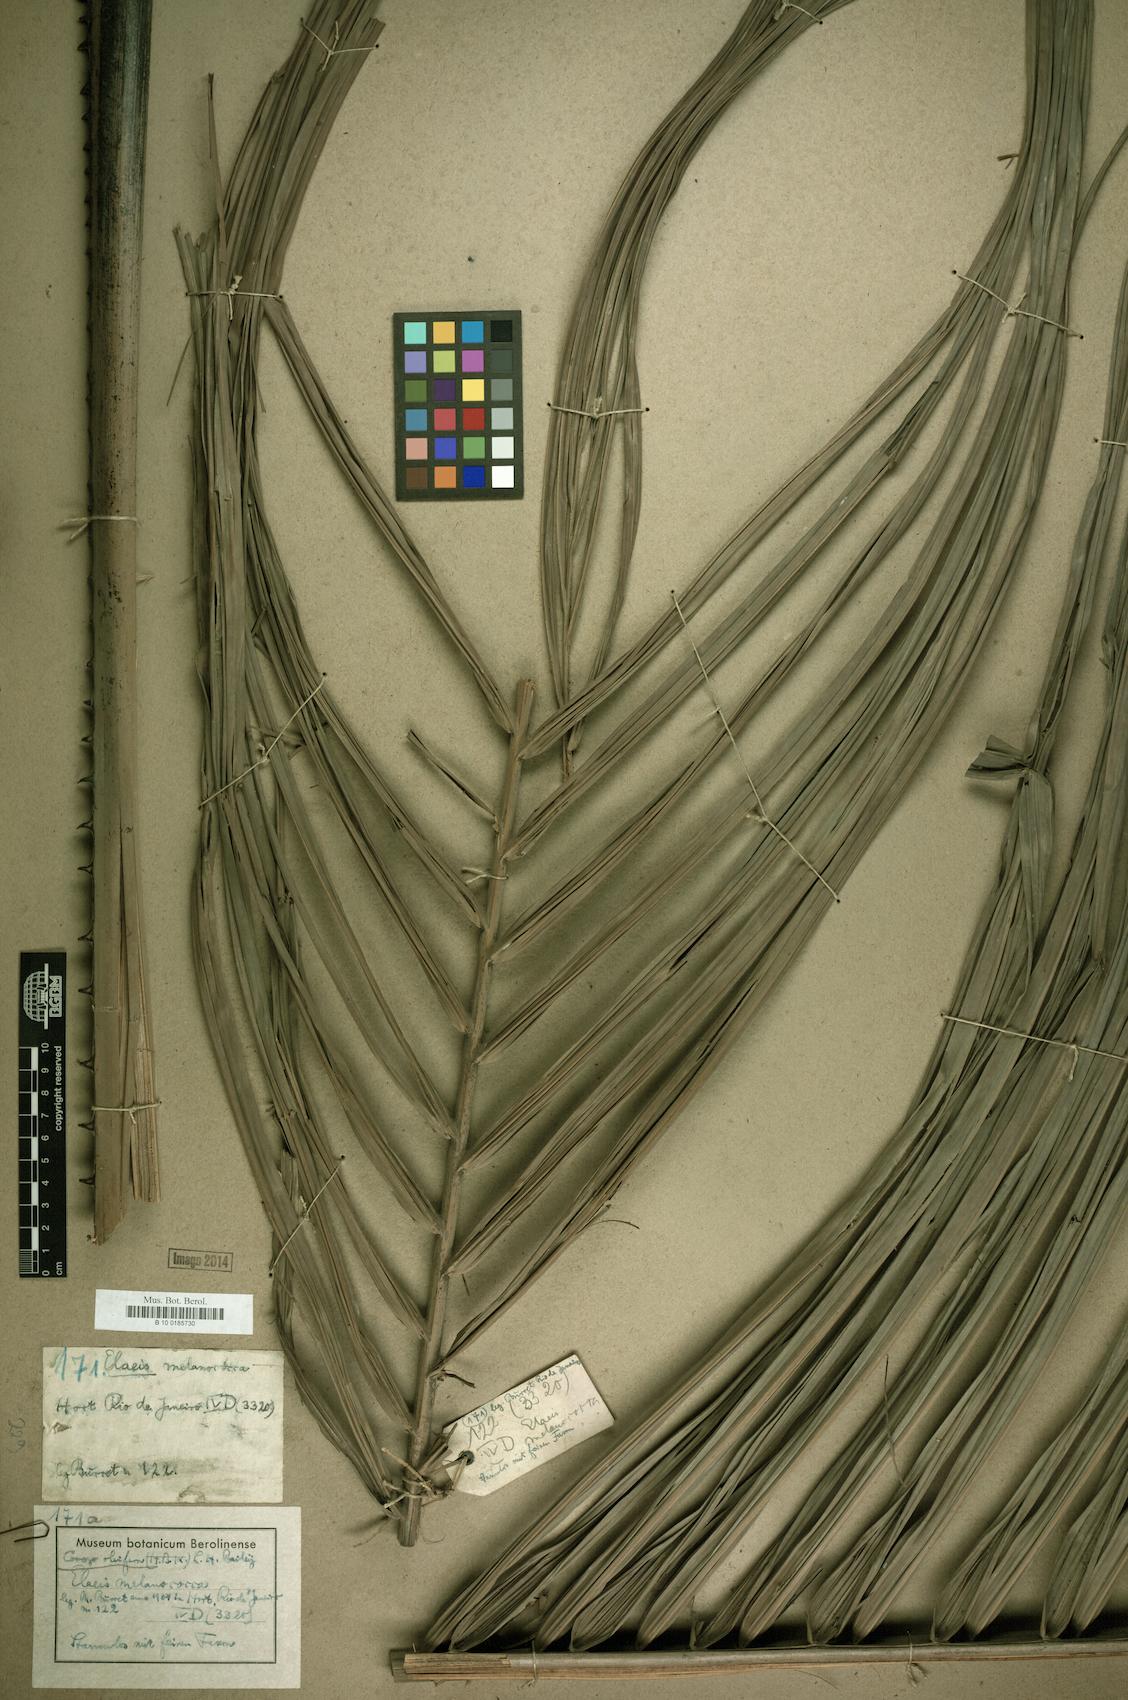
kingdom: Plantae
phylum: Tracheophyta
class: Liliopsida
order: Arecales
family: Arecaceae
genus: Elaeis
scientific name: Elaeis oleifera
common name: American oil palm
